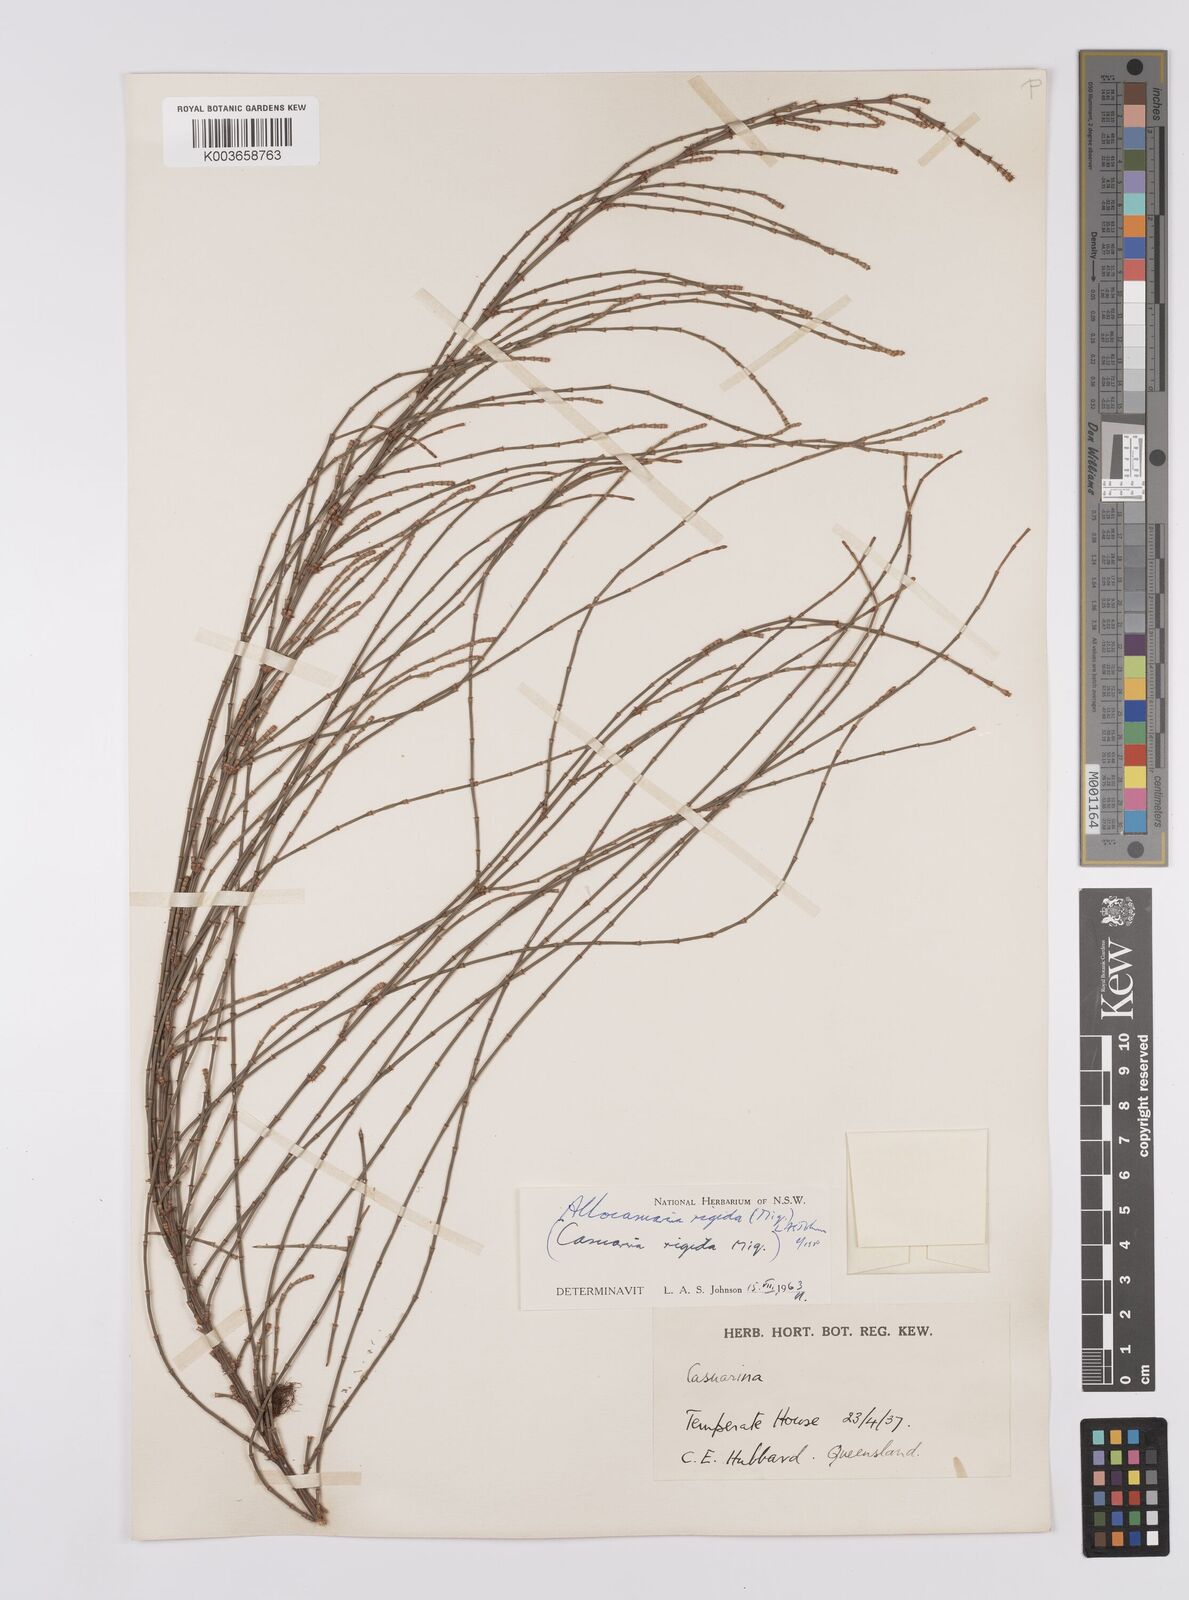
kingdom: Plantae
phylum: Tracheophyta
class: Magnoliopsida
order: Fagales
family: Casuarinaceae
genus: Allocasuarina
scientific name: Allocasuarina rigida
